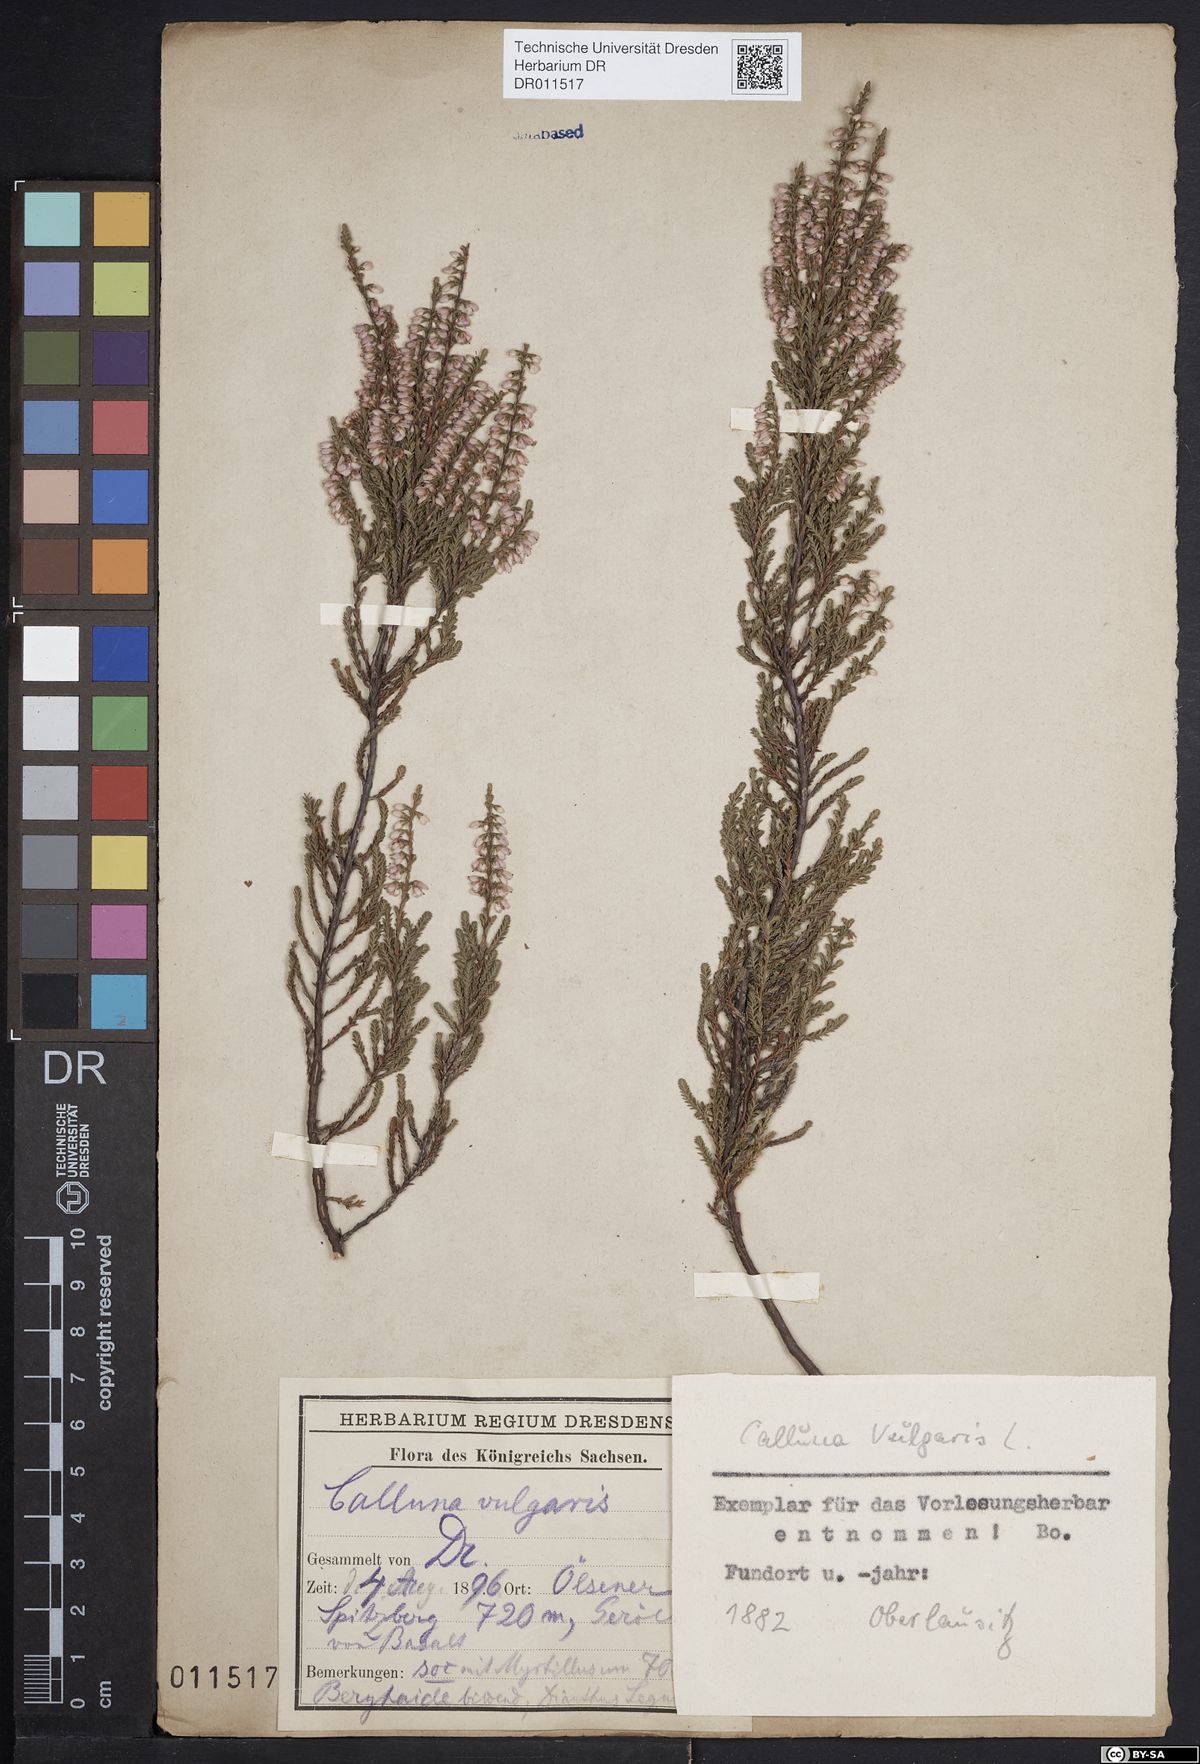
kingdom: Plantae
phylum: Tracheophyta
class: Magnoliopsida
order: Ericales
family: Ericaceae
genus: Calluna
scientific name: Calluna vulgaris
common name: Heather
